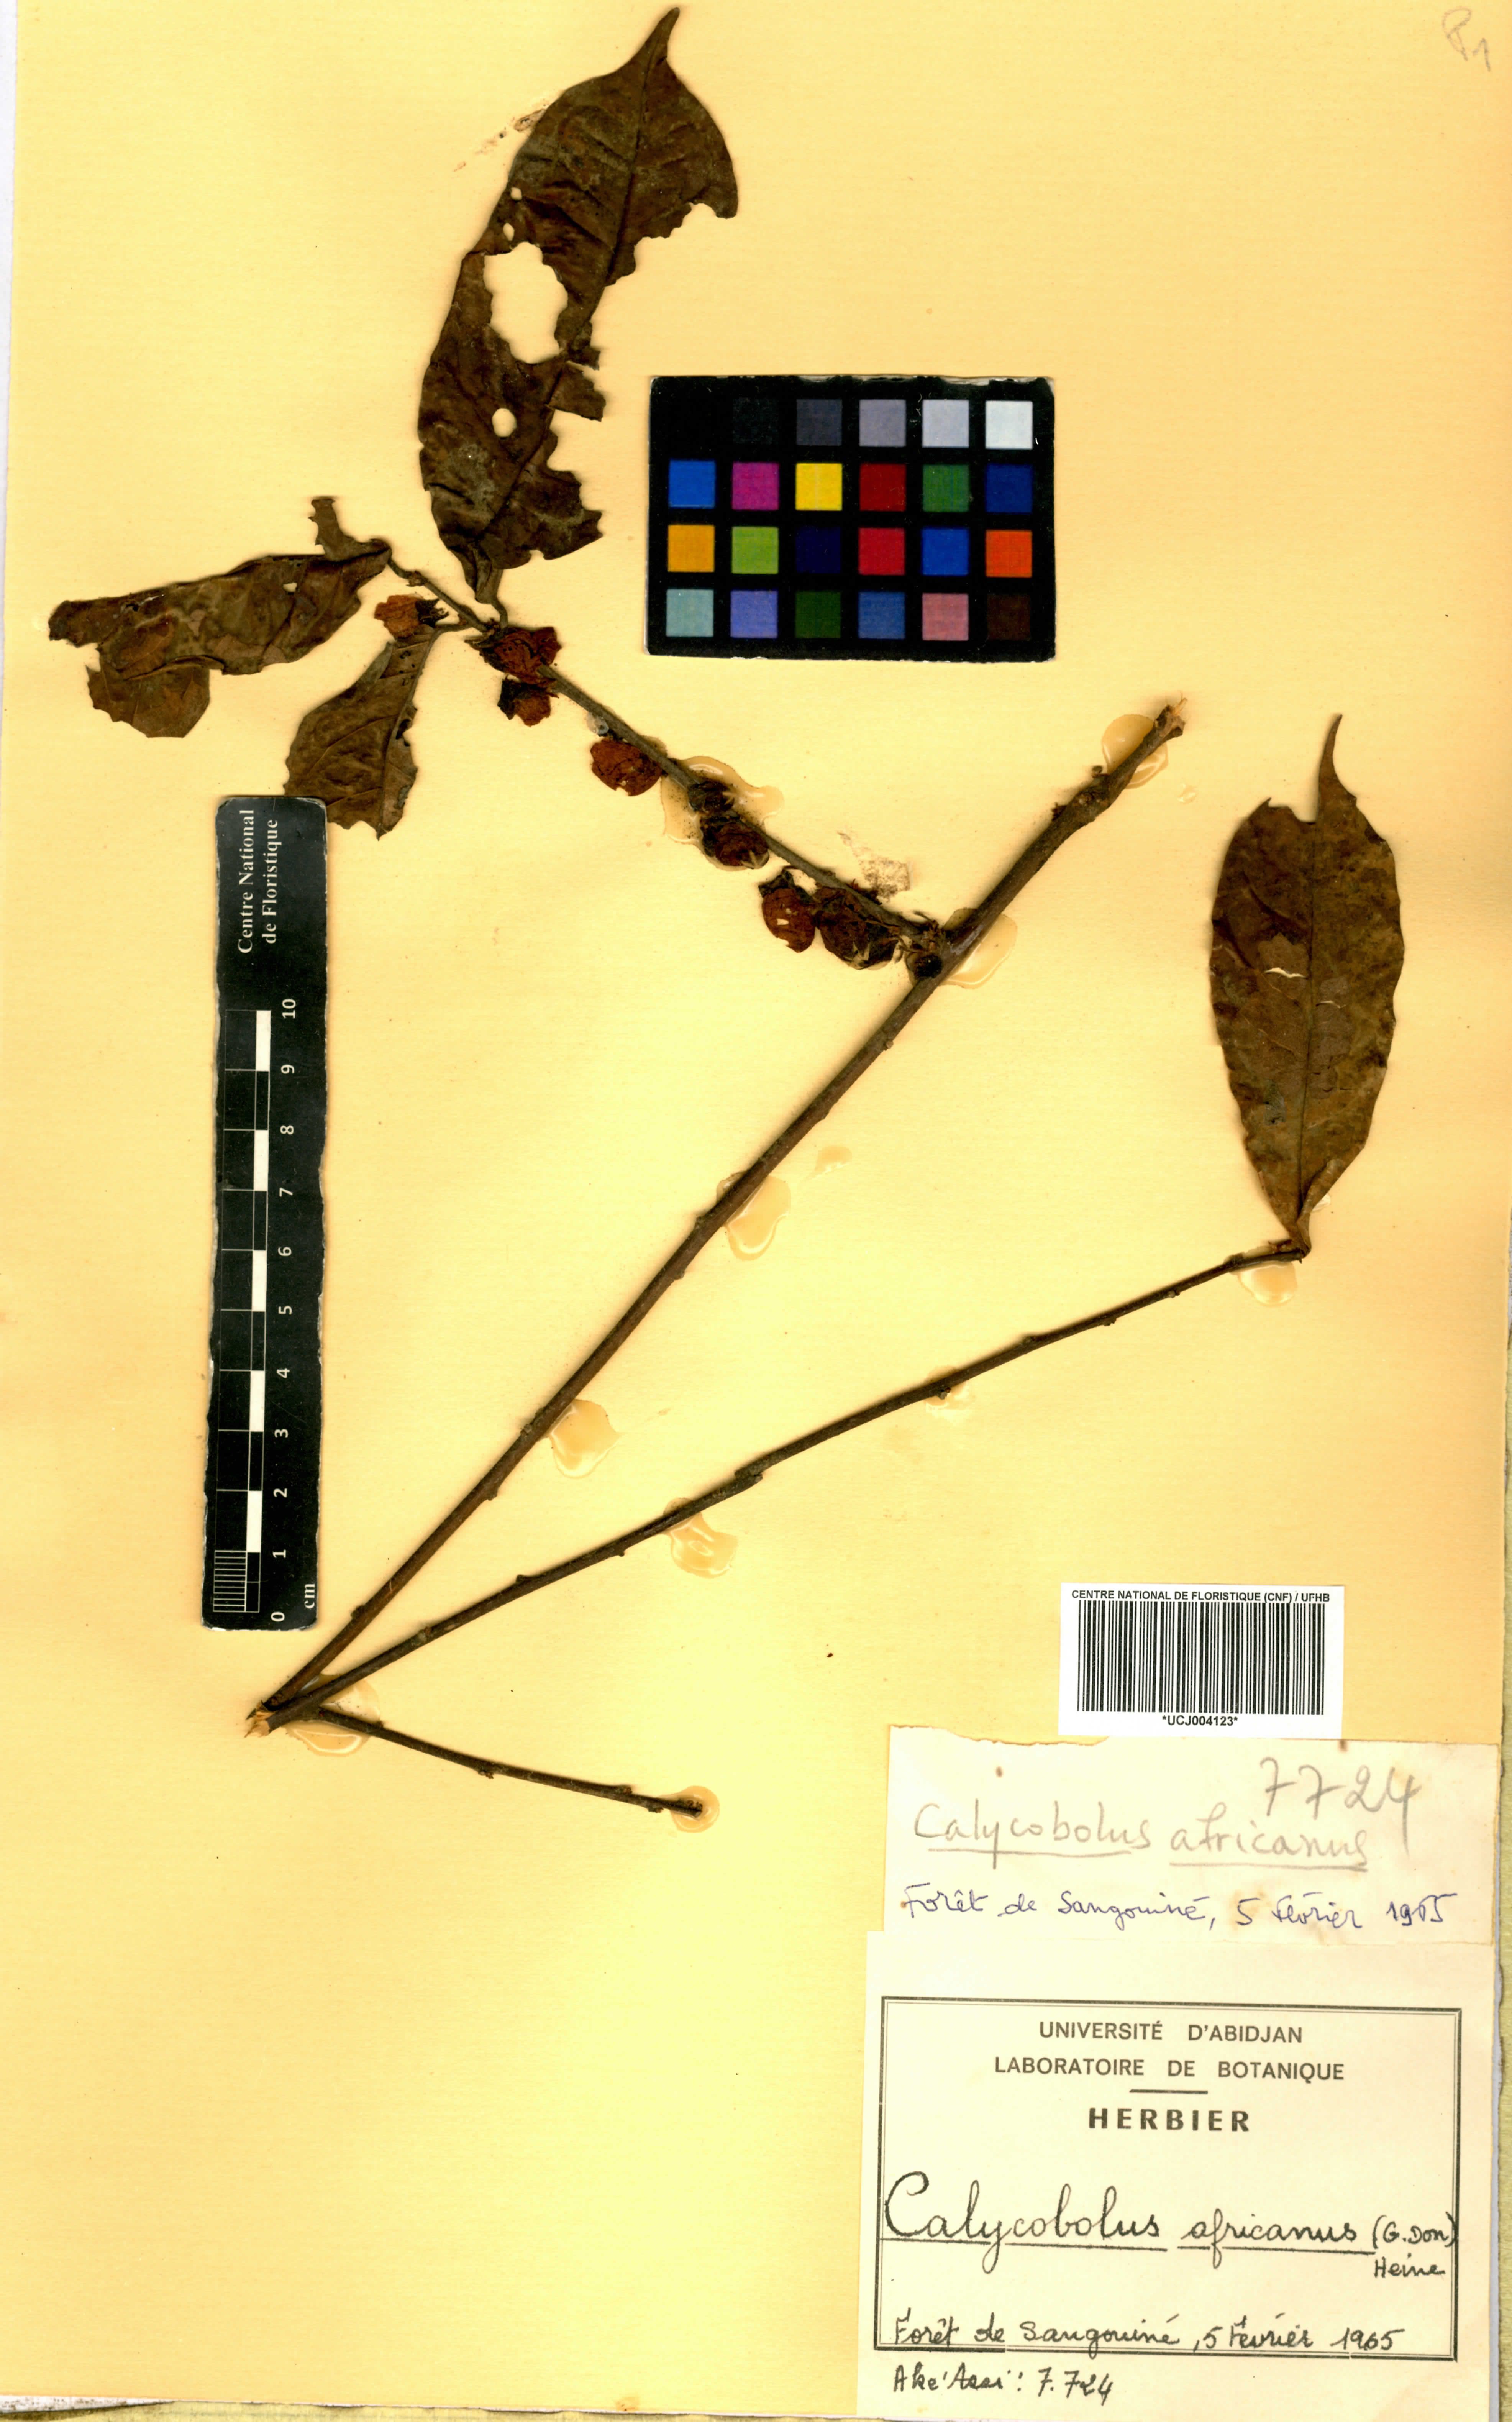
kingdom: Plantae
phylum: Tracheophyta
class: Magnoliopsida
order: Solanales
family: Convolvulaceae
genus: Calycobolus
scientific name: Calycobolus africanus
